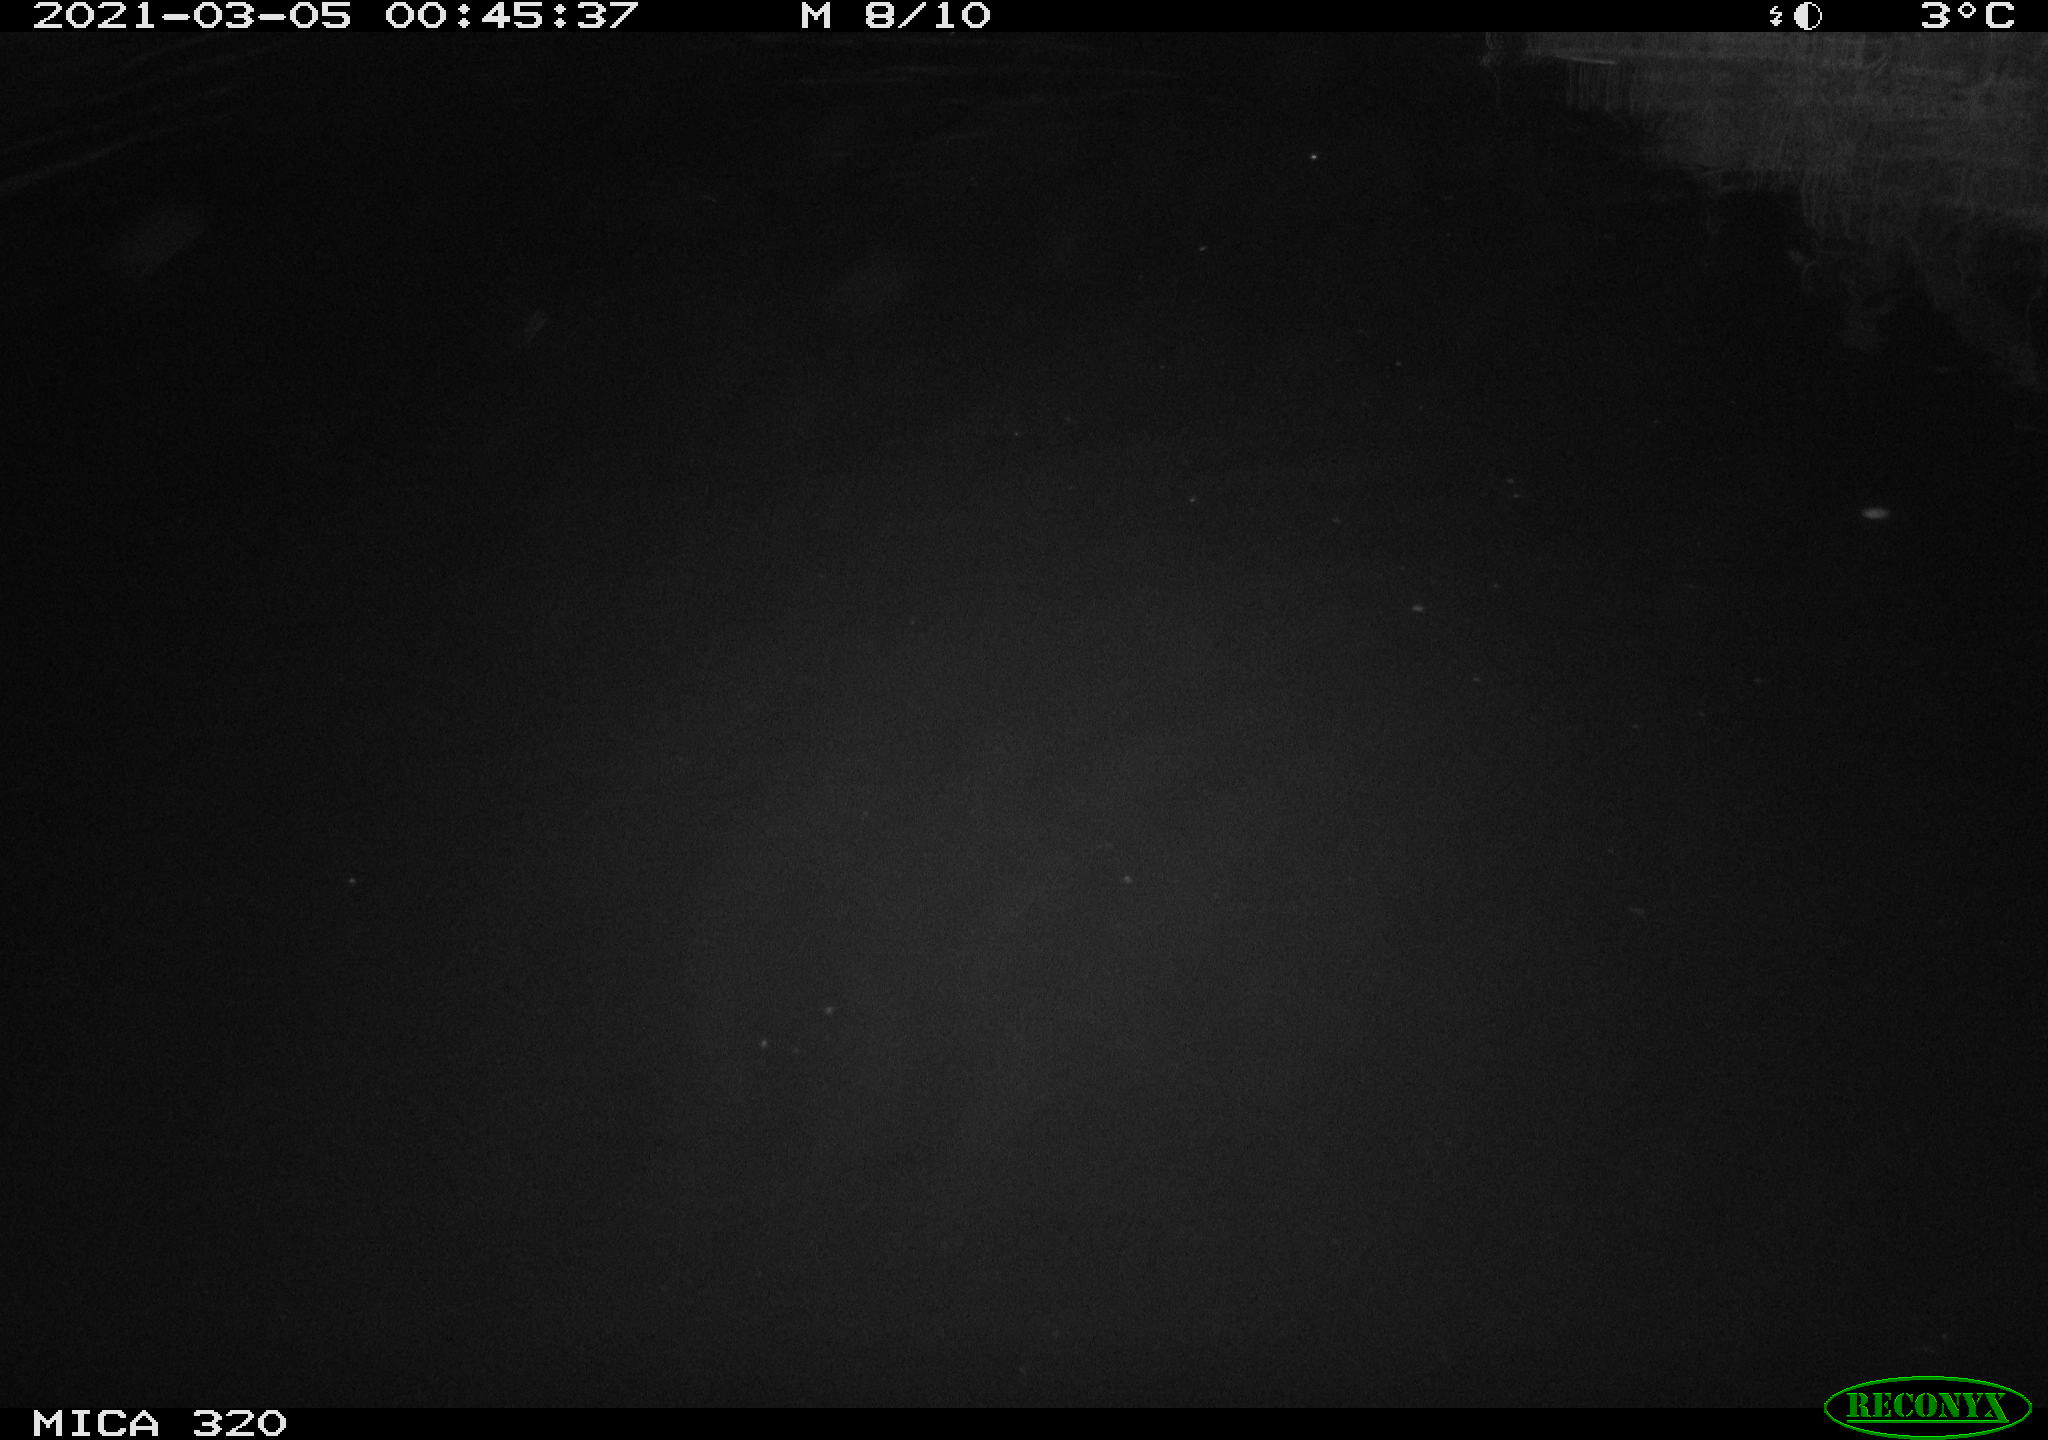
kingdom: Animalia
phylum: Chordata
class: Aves
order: Anseriformes
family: Anatidae
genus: Anas
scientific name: Anas platyrhynchos
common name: Mallard
